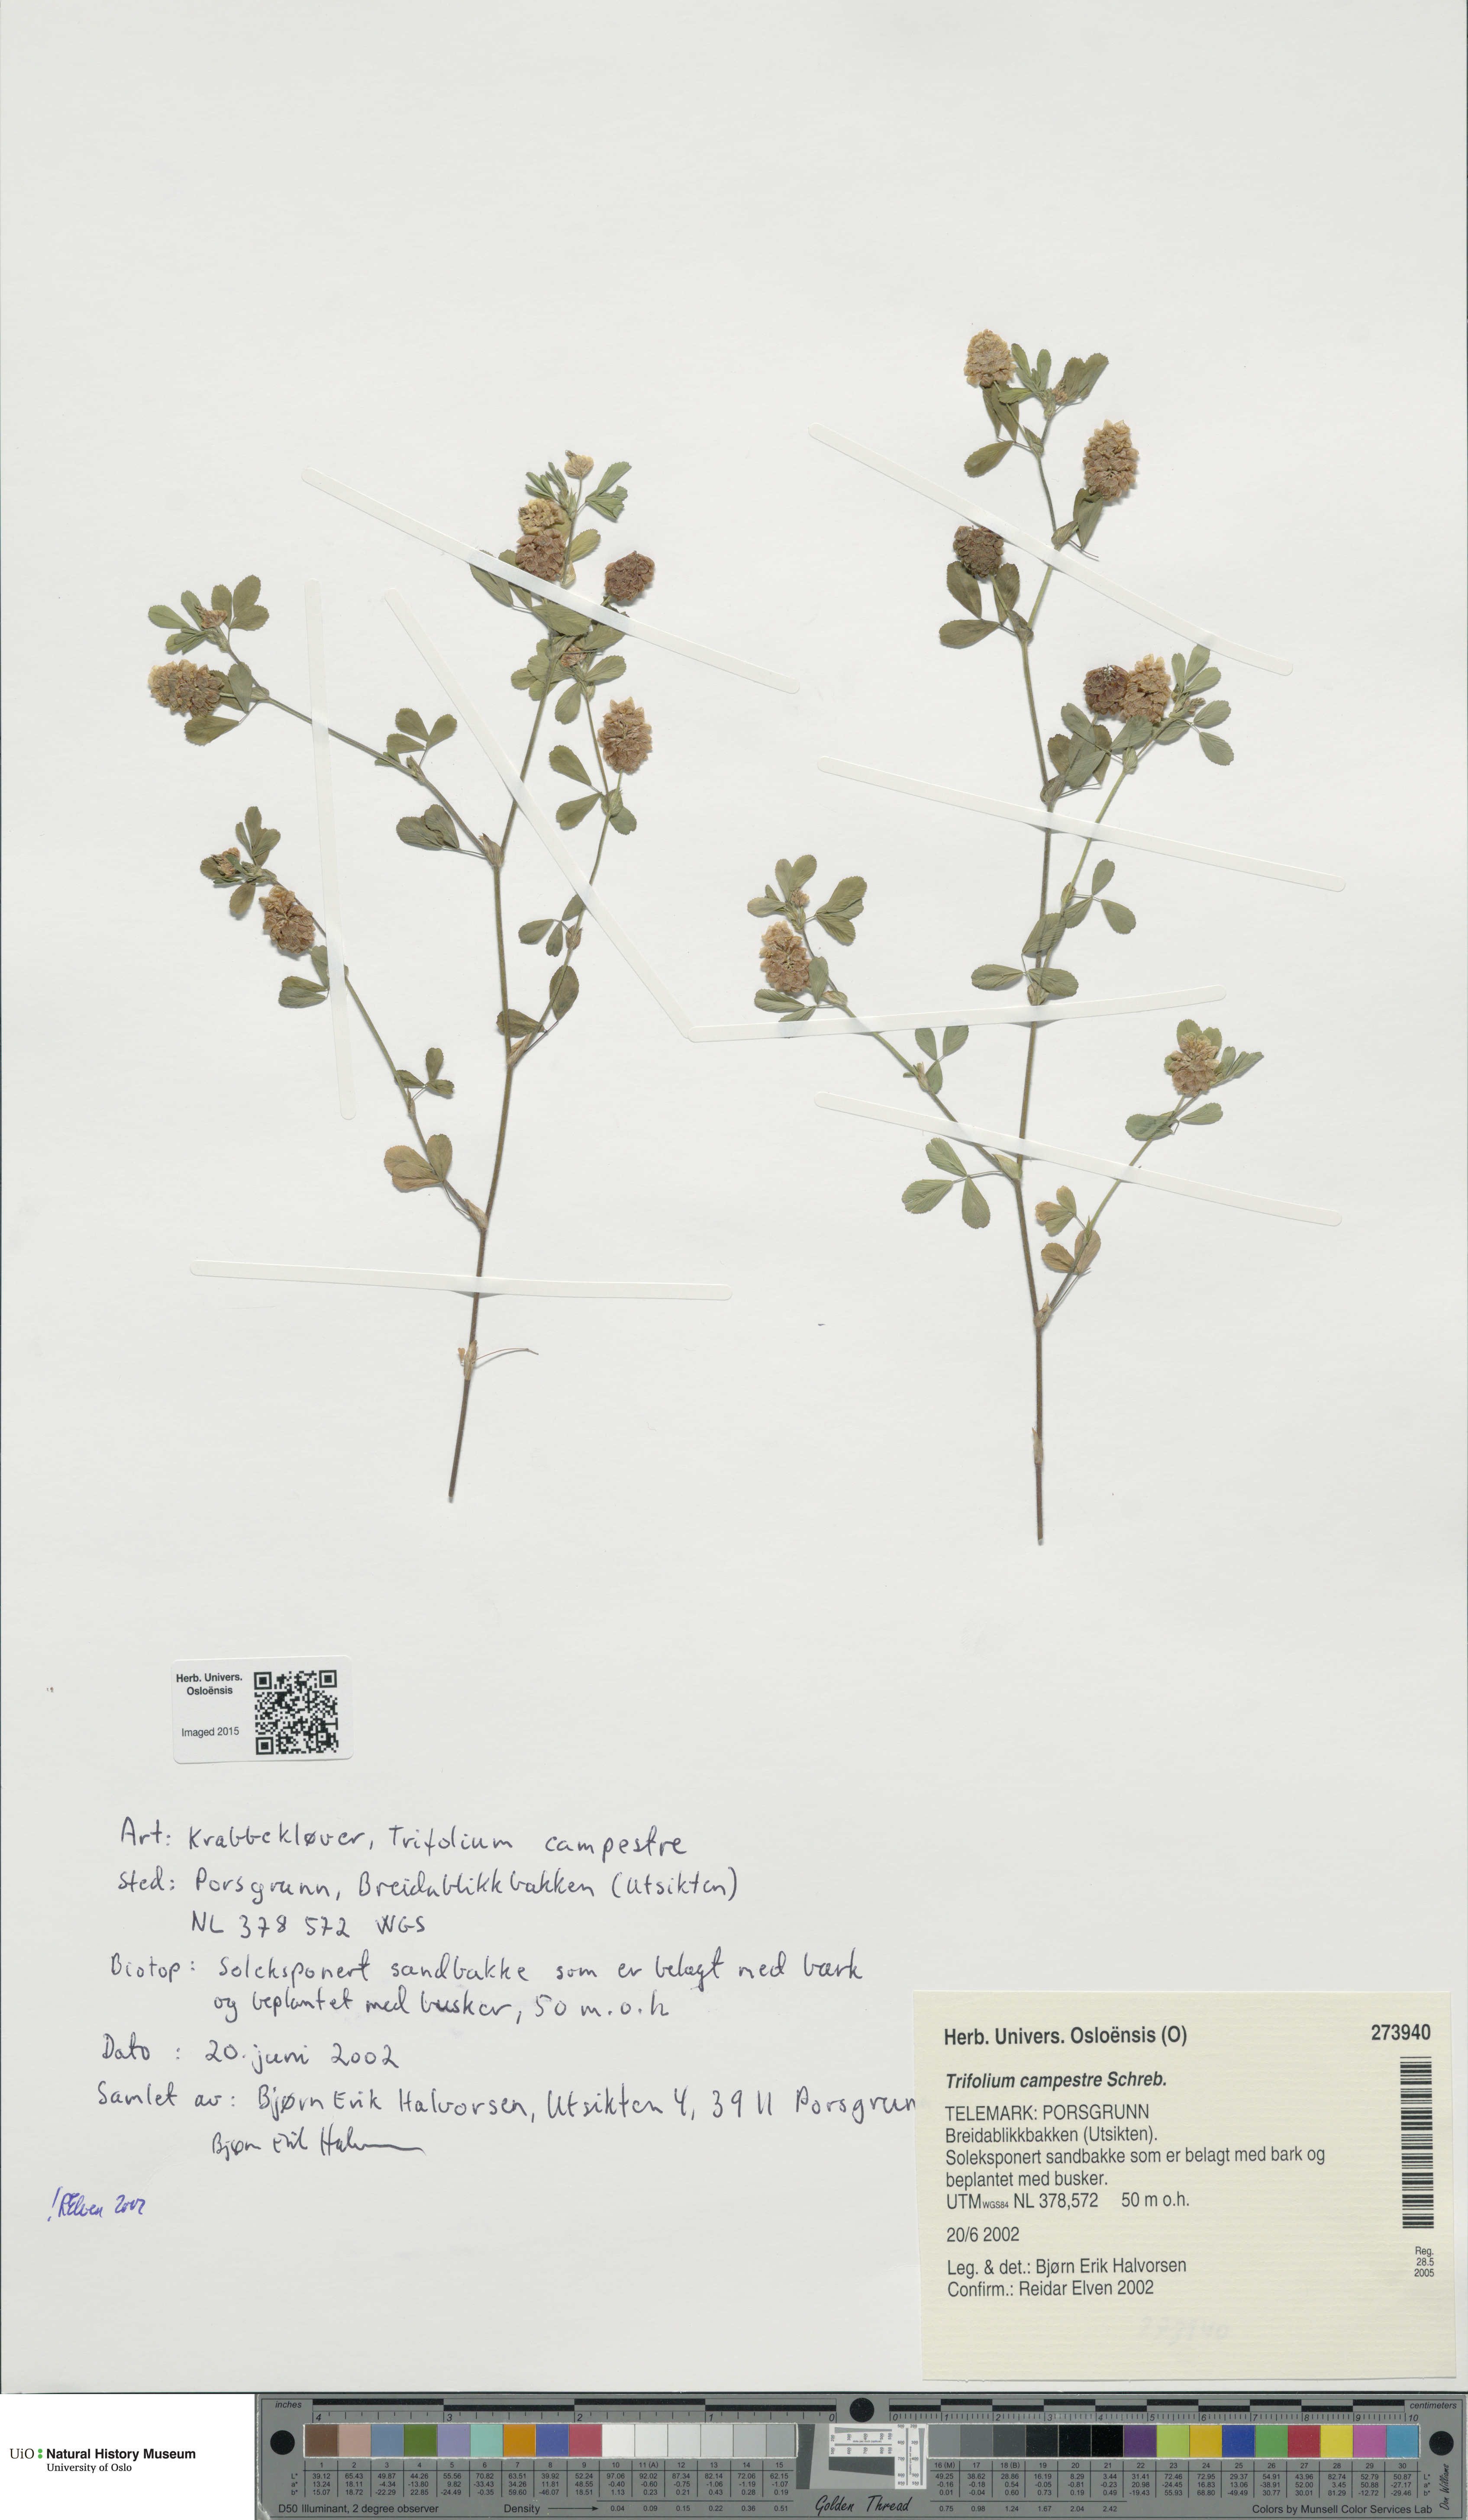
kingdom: Plantae
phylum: Tracheophyta
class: Magnoliopsida
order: Fabales
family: Fabaceae
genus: Trifolium
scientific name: Trifolium campestre
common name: Field clover
